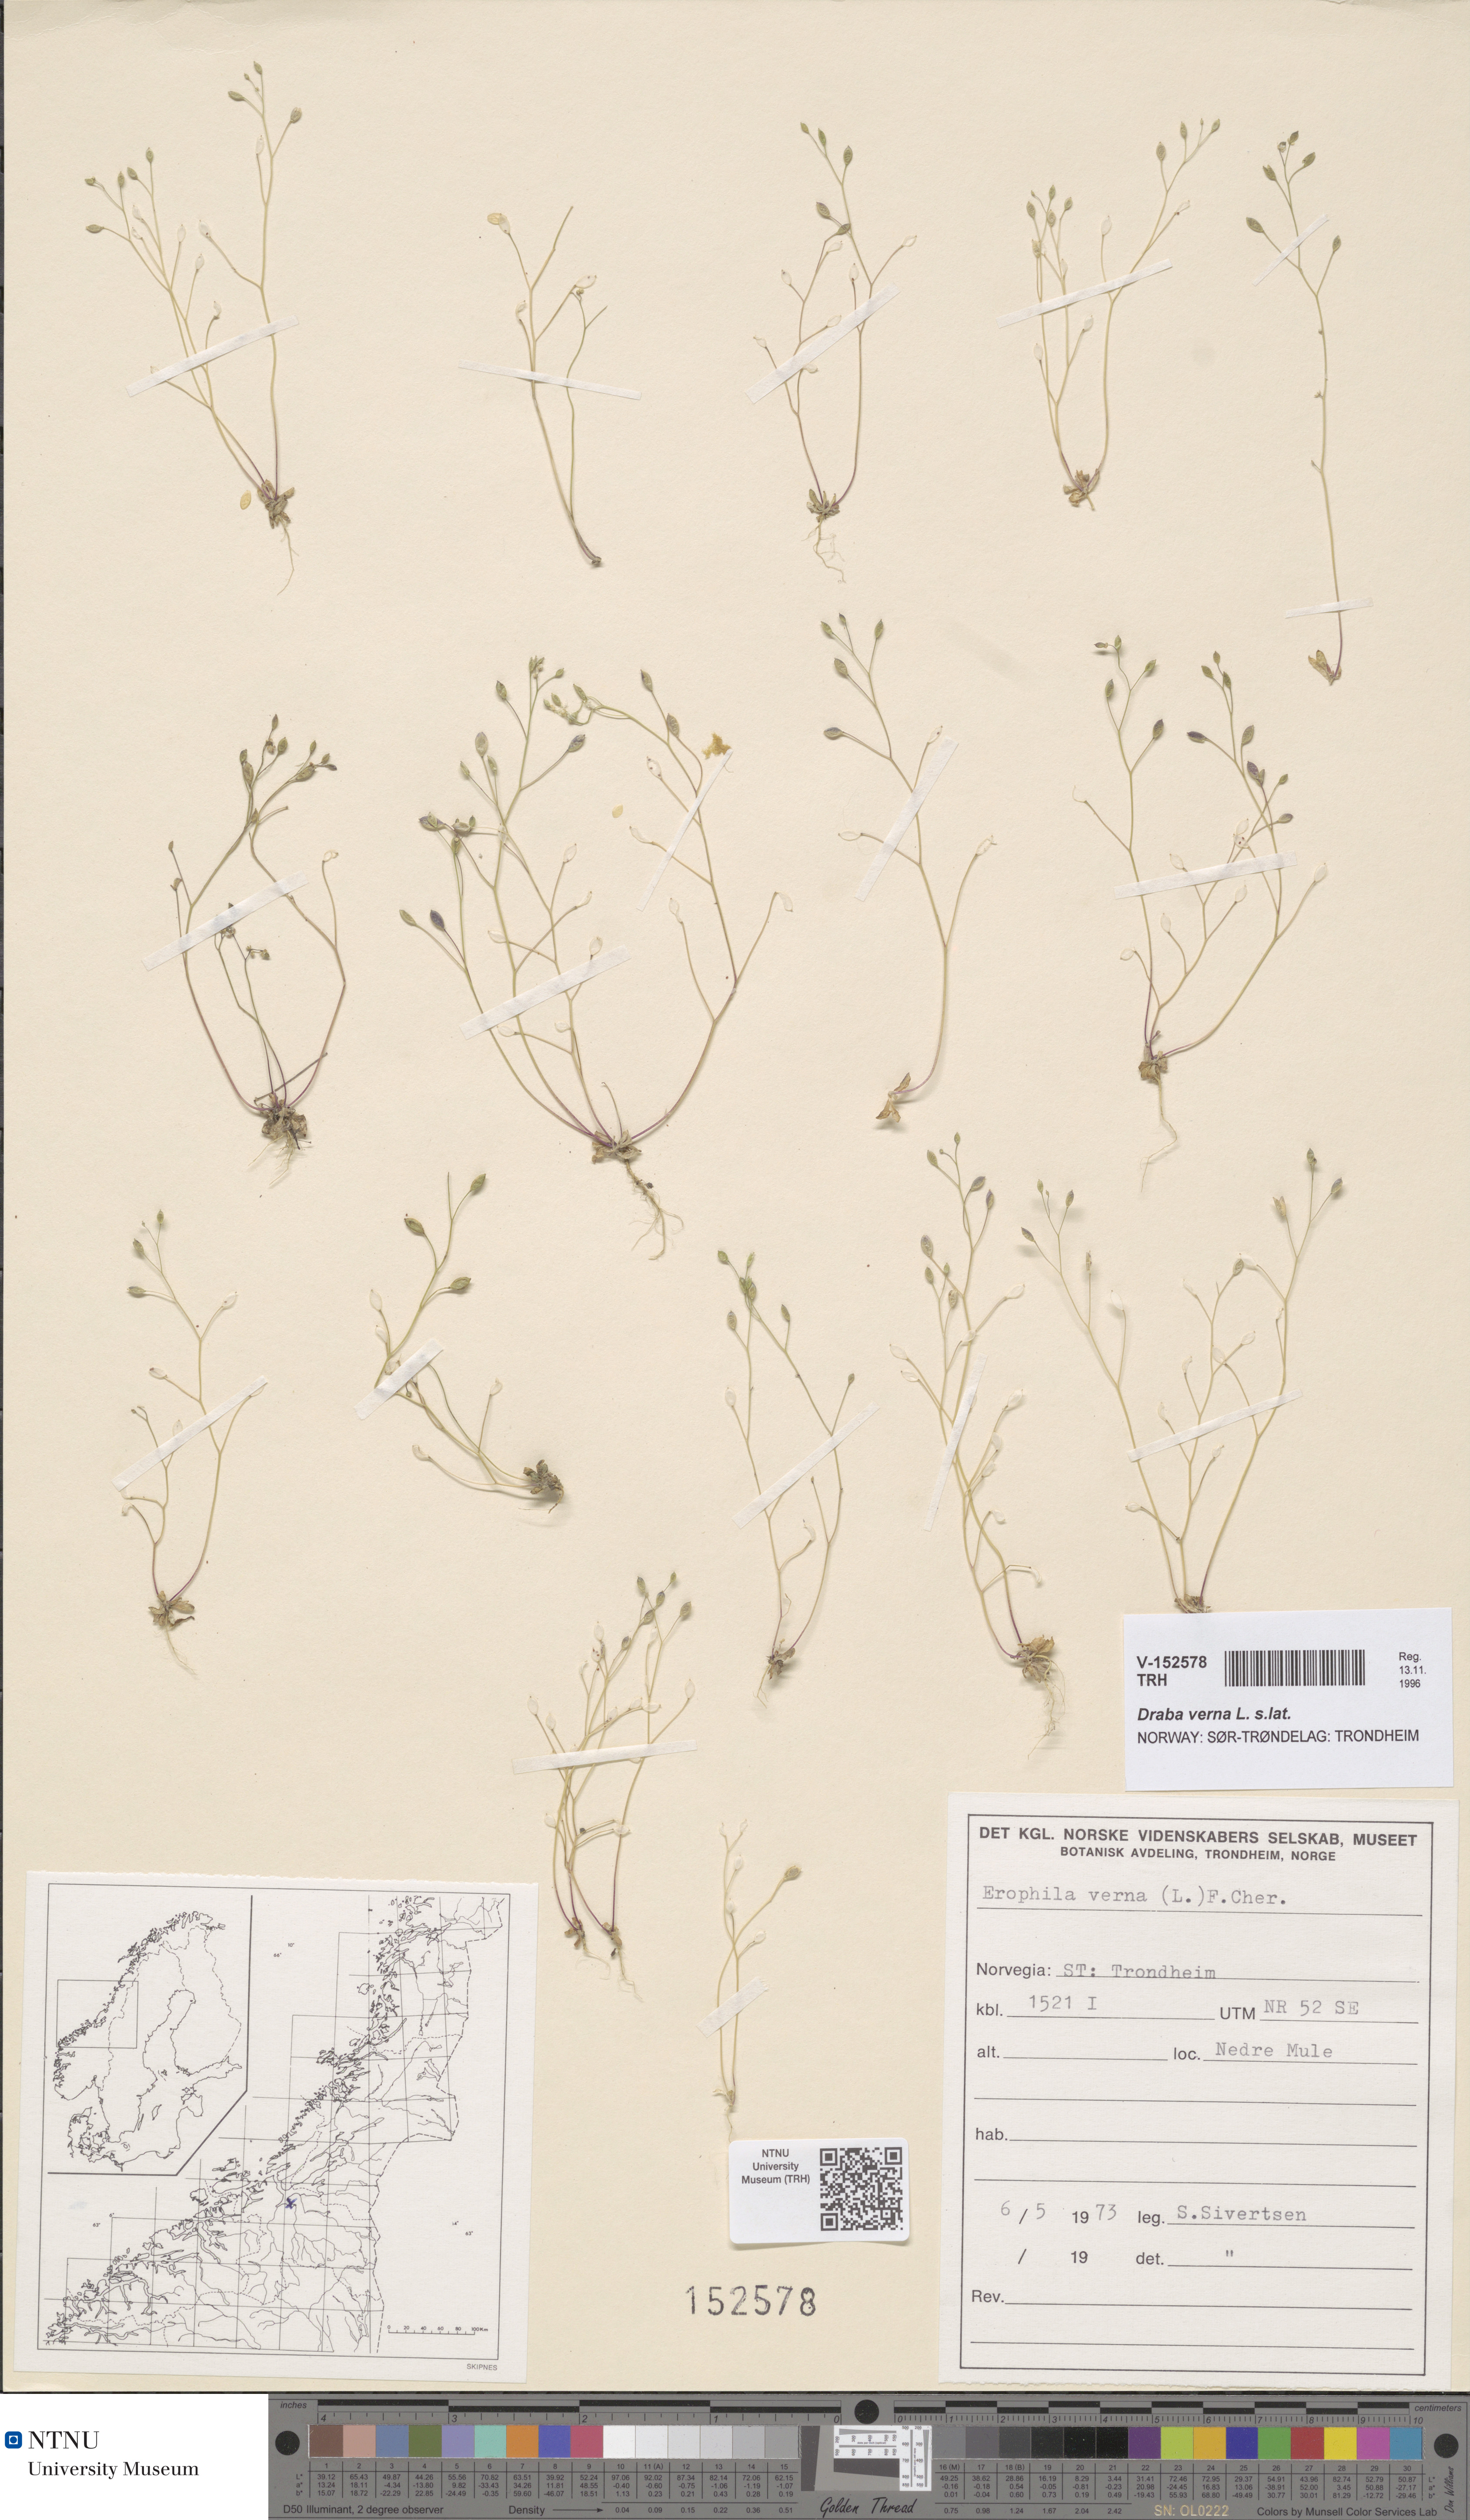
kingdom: Plantae
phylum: Tracheophyta
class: Magnoliopsida
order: Brassicales
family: Brassicaceae
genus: Draba
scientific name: Draba verna
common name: Spring draba
